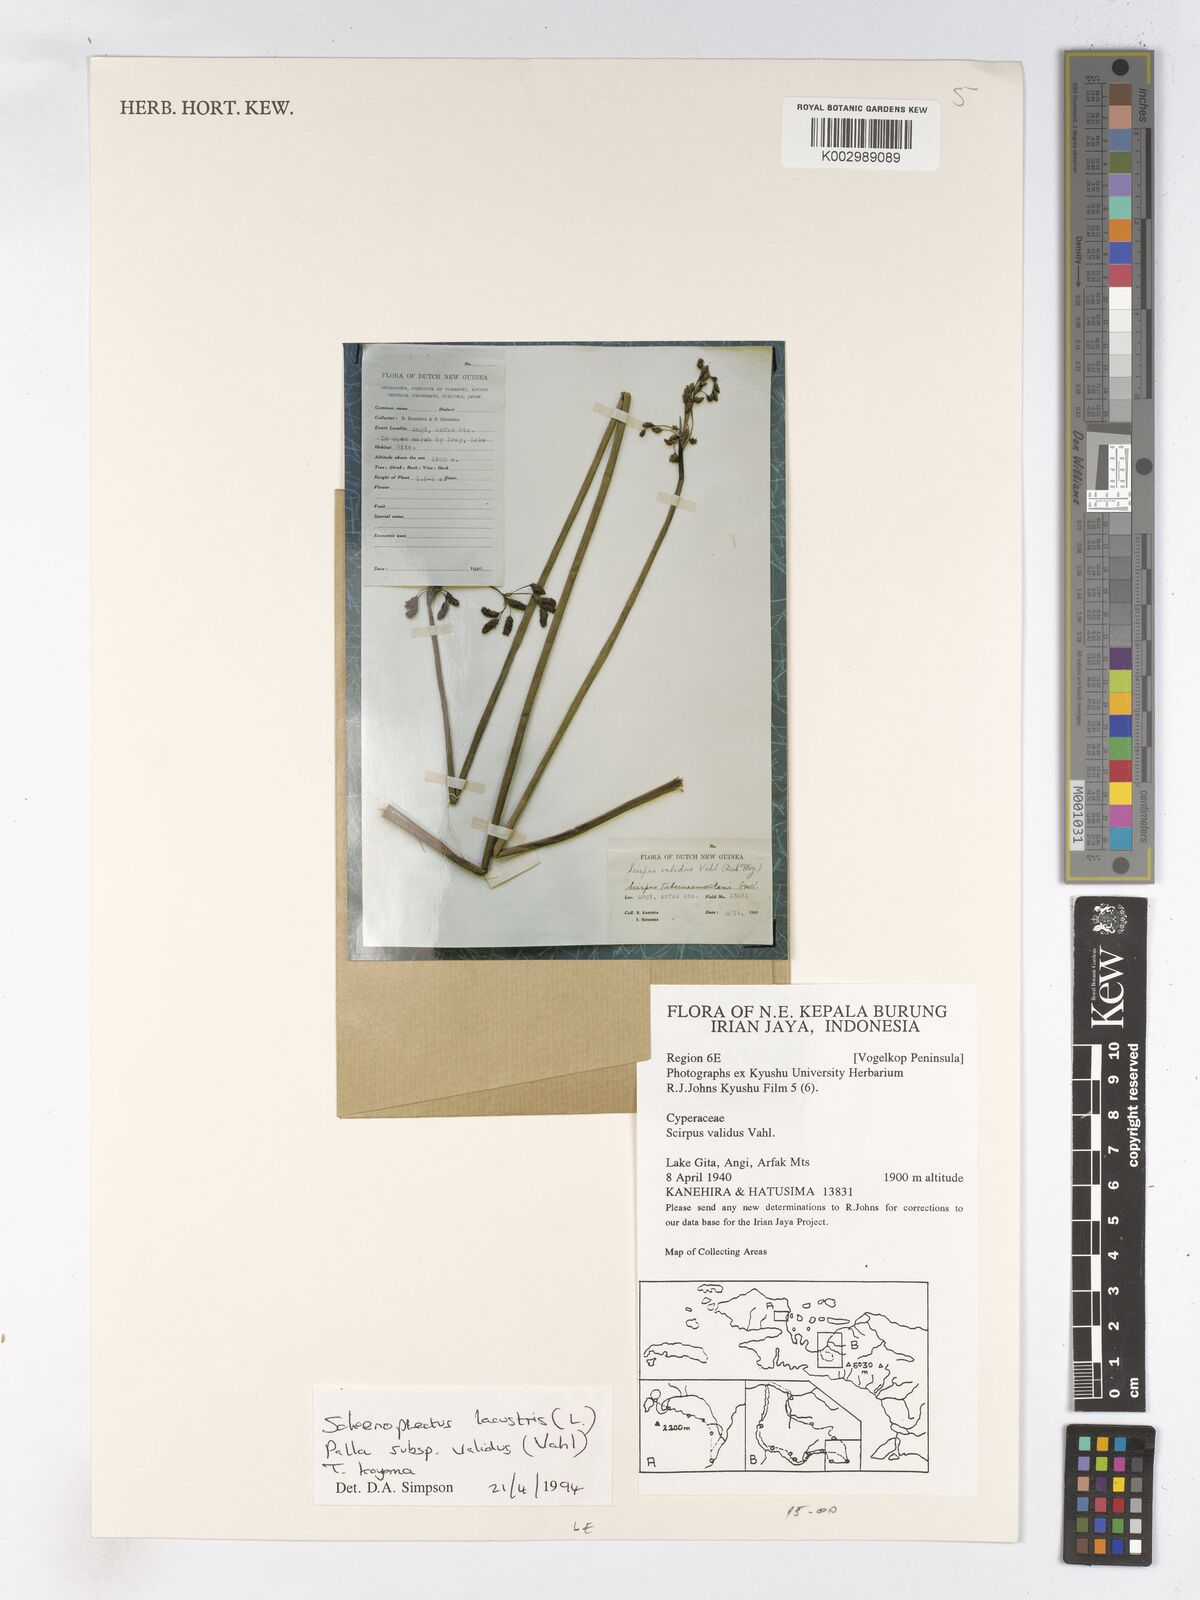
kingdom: Plantae
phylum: Tracheophyta
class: Liliopsida
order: Poales
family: Cyperaceae
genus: Schoenoplectus
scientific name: Schoenoplectus
